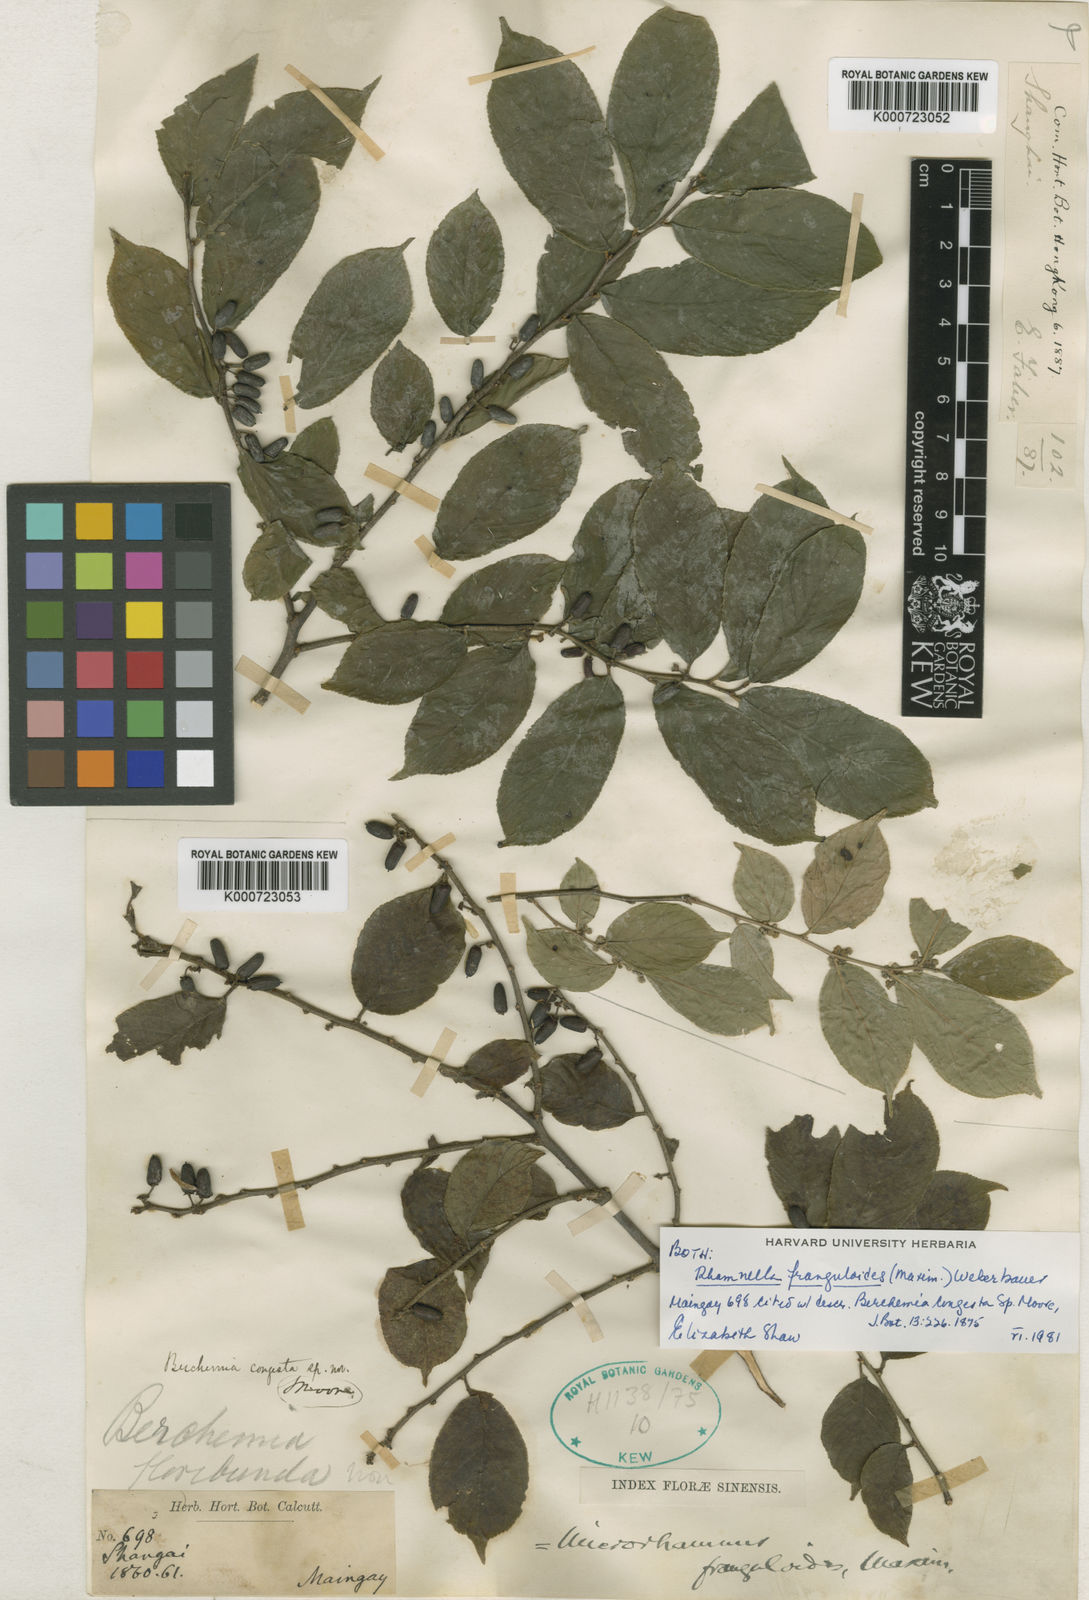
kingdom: Plantae
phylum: Tracheophyta
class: Magnoliopsida
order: Rosales
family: Rhamnaceae
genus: Rhamnella
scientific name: Rhamnella franguloides
